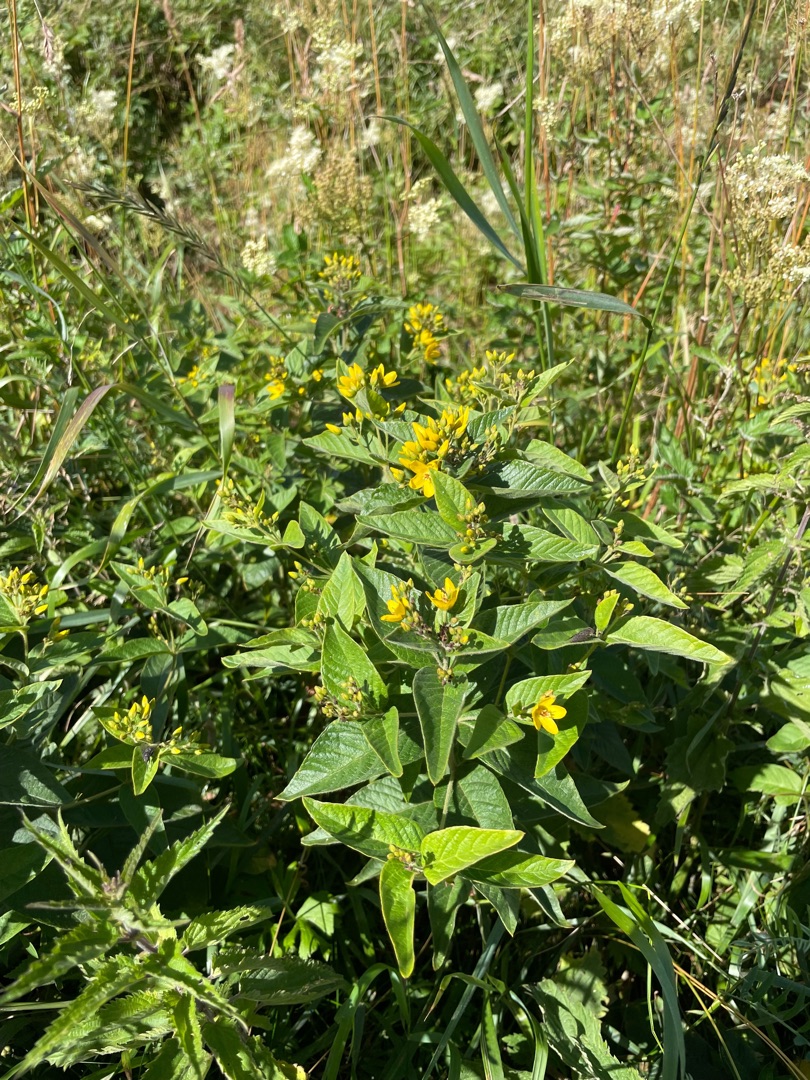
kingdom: Plantae
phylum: Tracheophyta
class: Magnoliopsida
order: Ericales
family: Primulaceae
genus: Lysimachia
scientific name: Lysimachia vulgaris
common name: Almindelig fredløs
